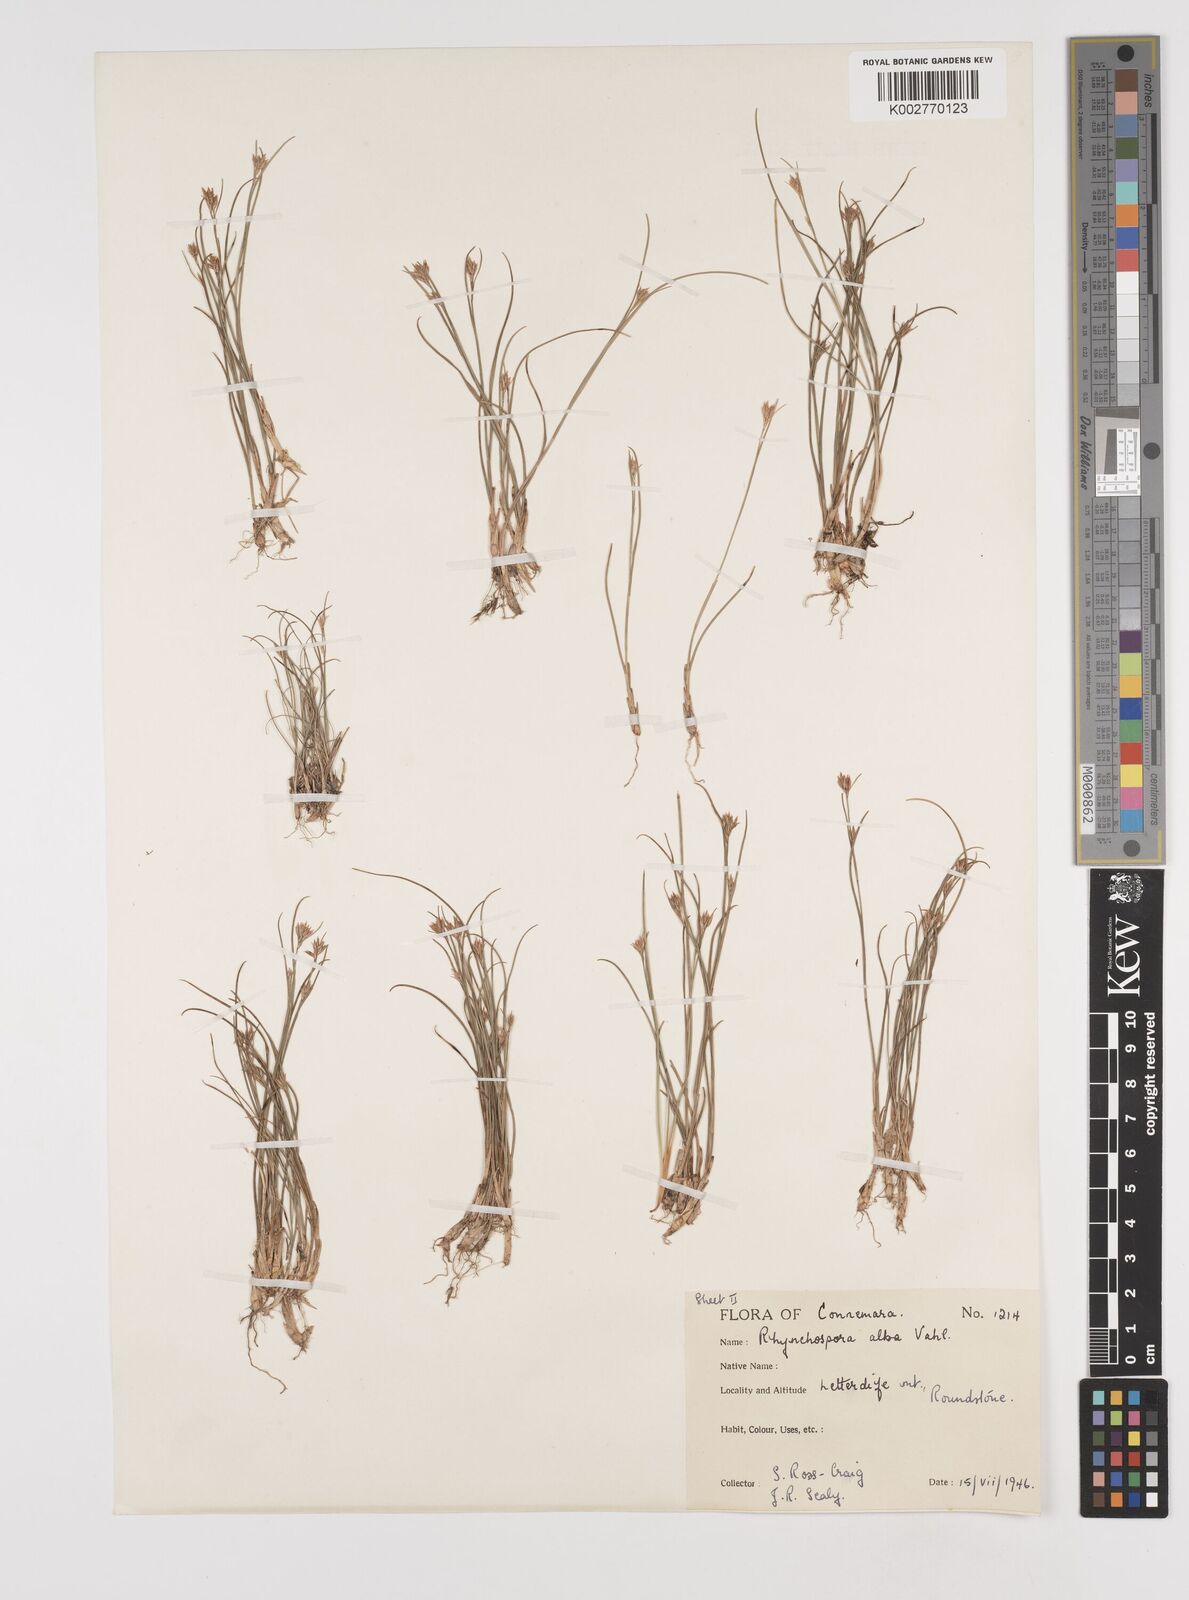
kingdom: Plantae
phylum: Tracheophyta
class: Liliopsida
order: Poales
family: Cyperaceae
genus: Rhynchospora
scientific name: Rhynchospora alba
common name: White beak-sedge
